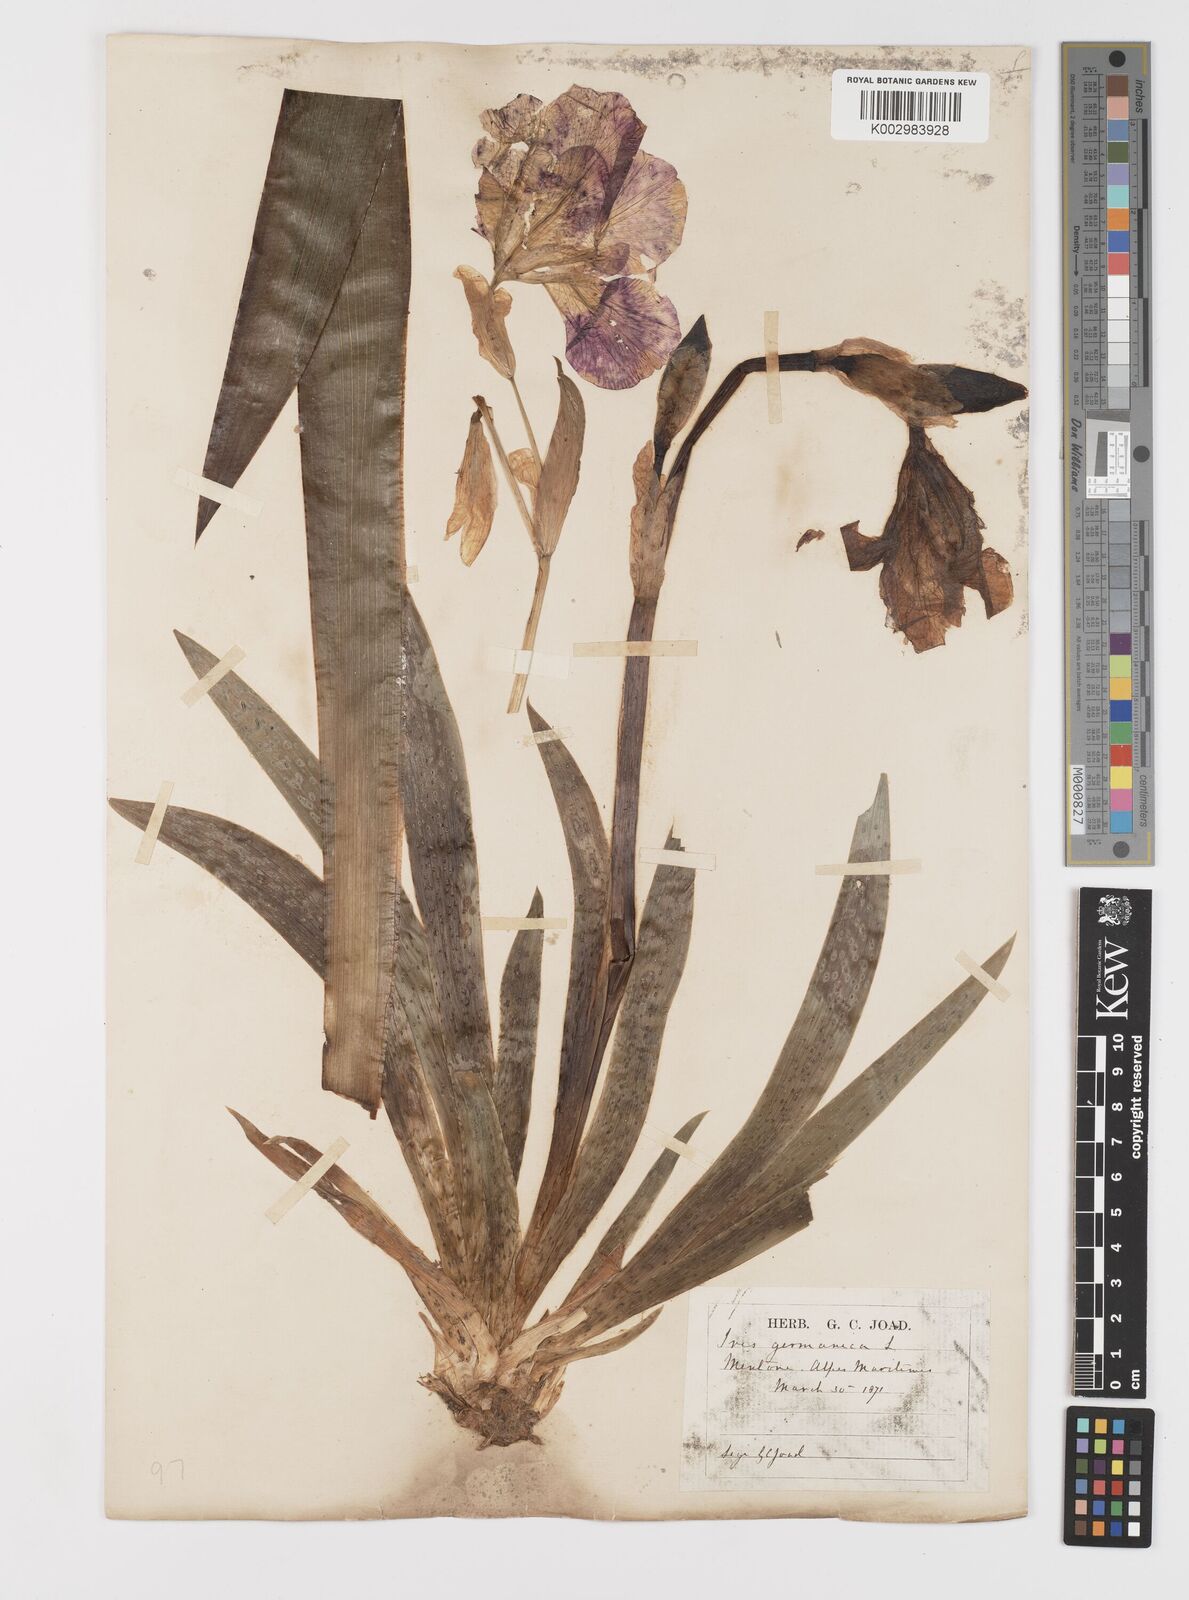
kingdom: Plantae
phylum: Tracheophyta
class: Liliopsida
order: Asparagales
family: Iridaceae
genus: Iris
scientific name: Iris germanica
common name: German iris
